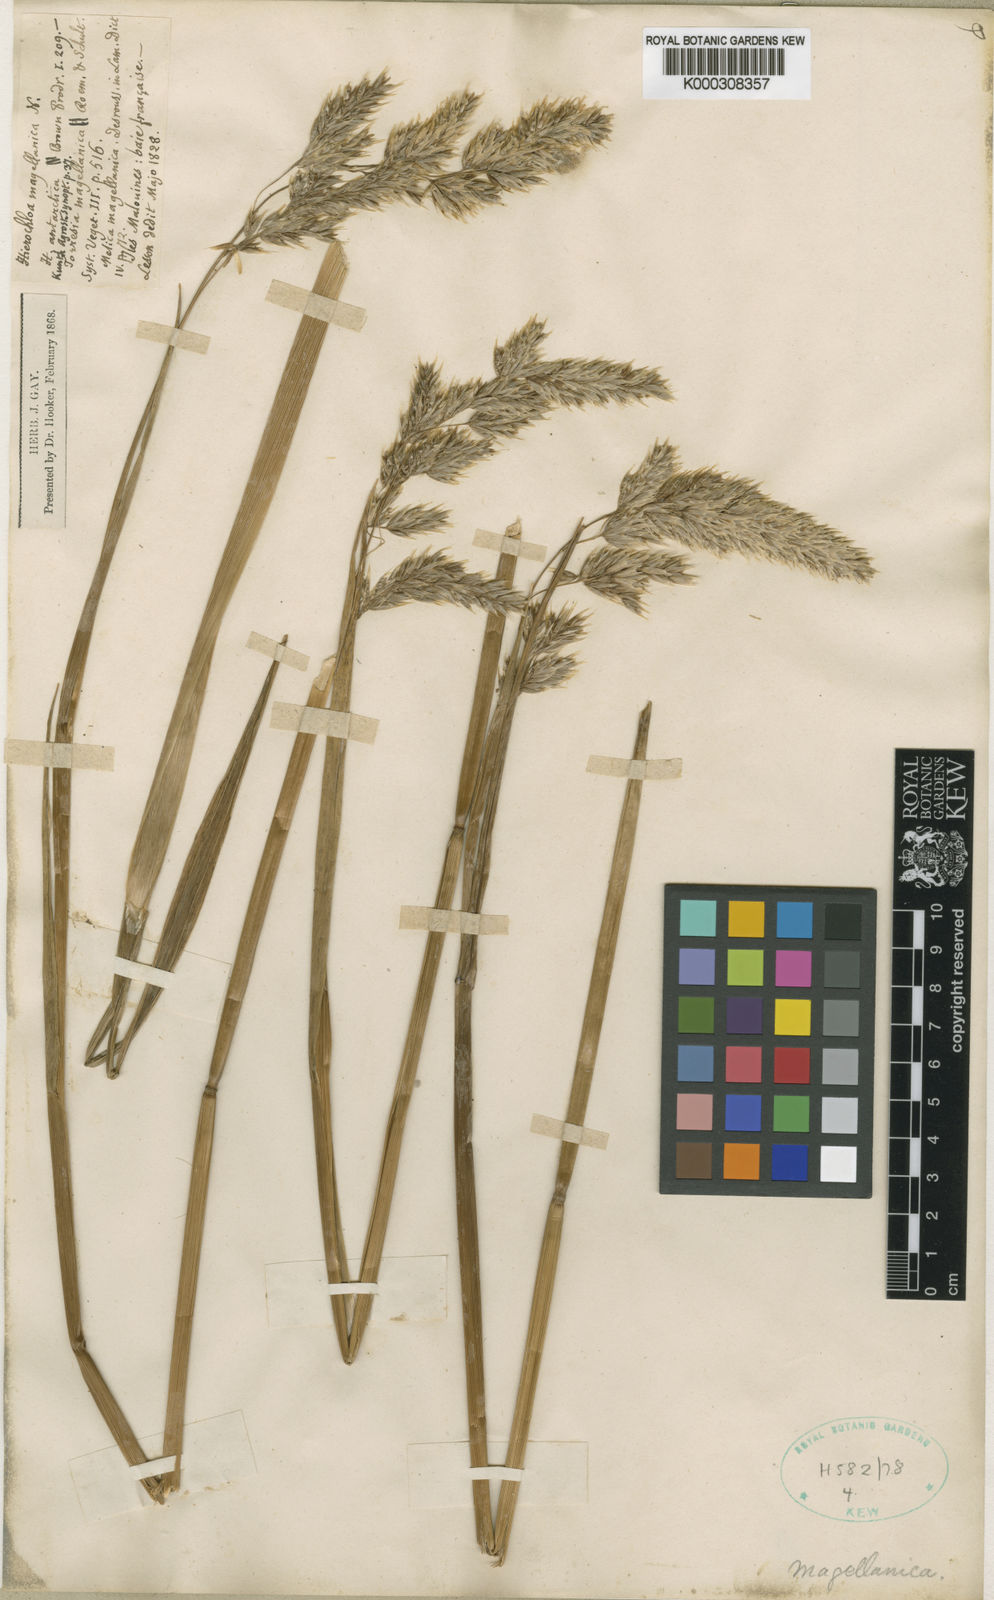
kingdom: Plantae
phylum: Tracheophyta
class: Liliopsida
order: Poales
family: Poaceae
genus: Anthoxanthum
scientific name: Anthoxanthum redolens
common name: Sweet holy grass
